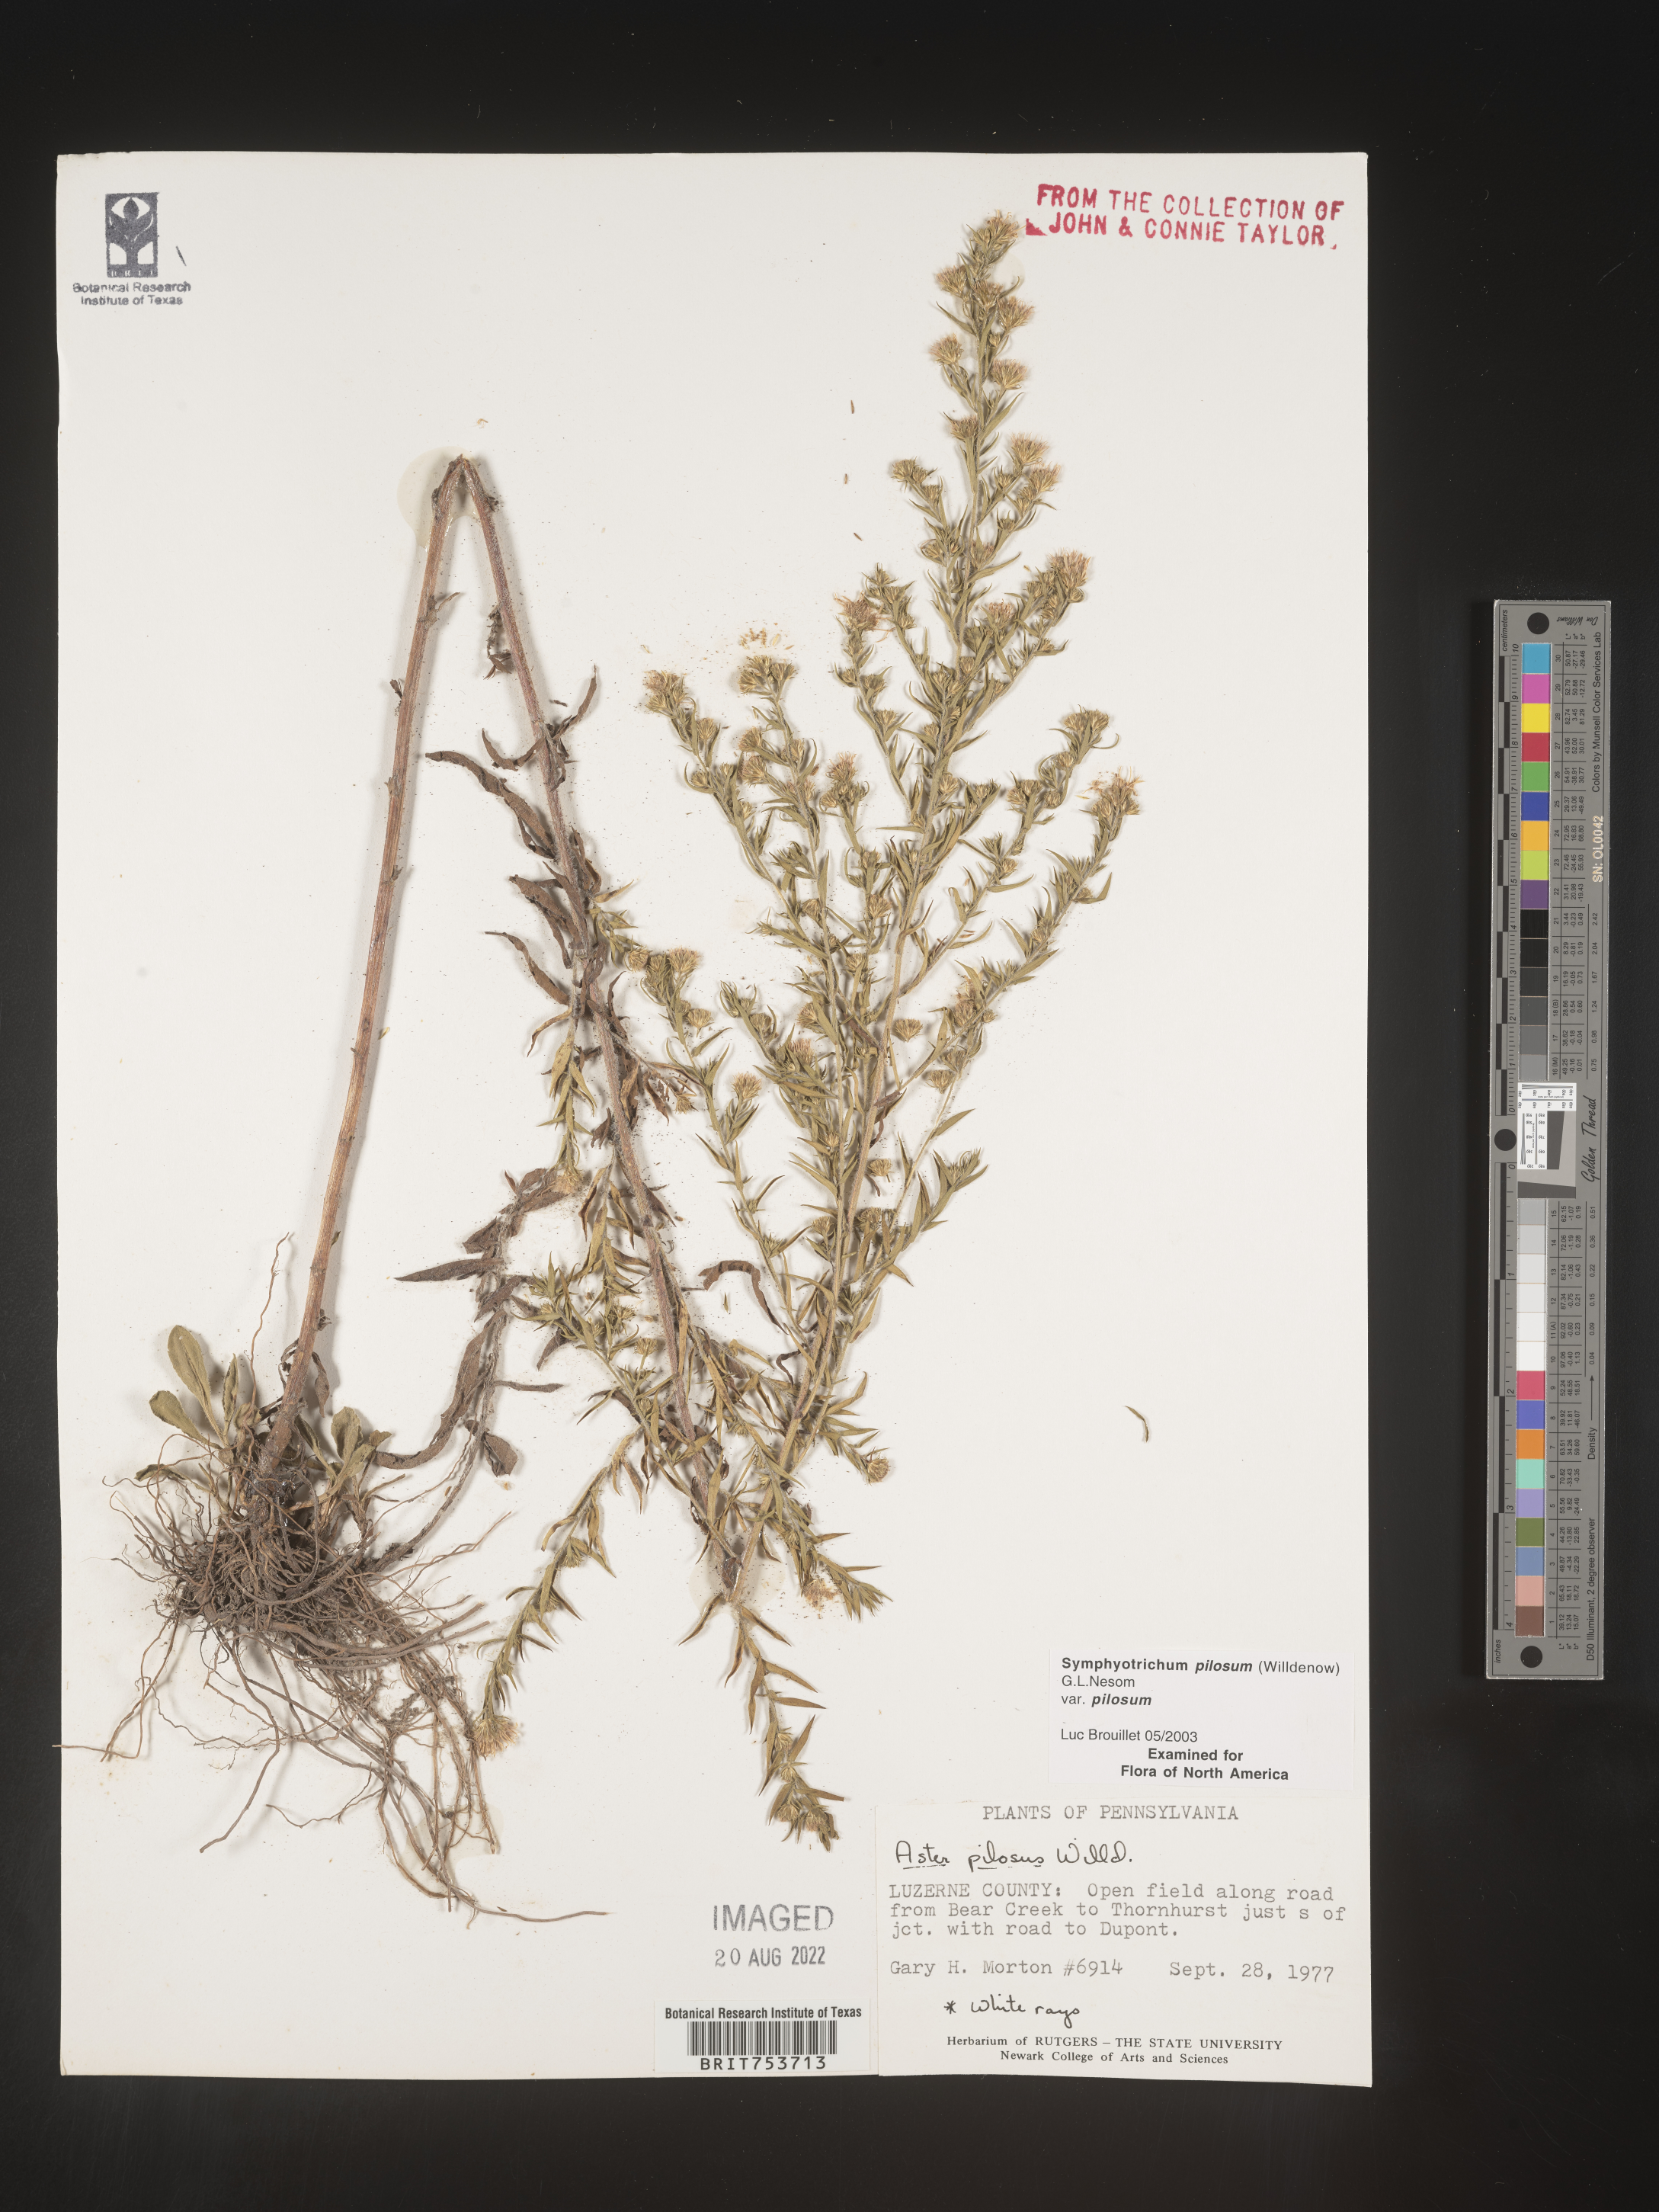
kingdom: Plantae
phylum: Tracheophyta
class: Magnoliopsida
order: Asterales
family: Asteraceae
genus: Symphyotrichum
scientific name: Symphyotrichum pilosum
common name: Awl aster
